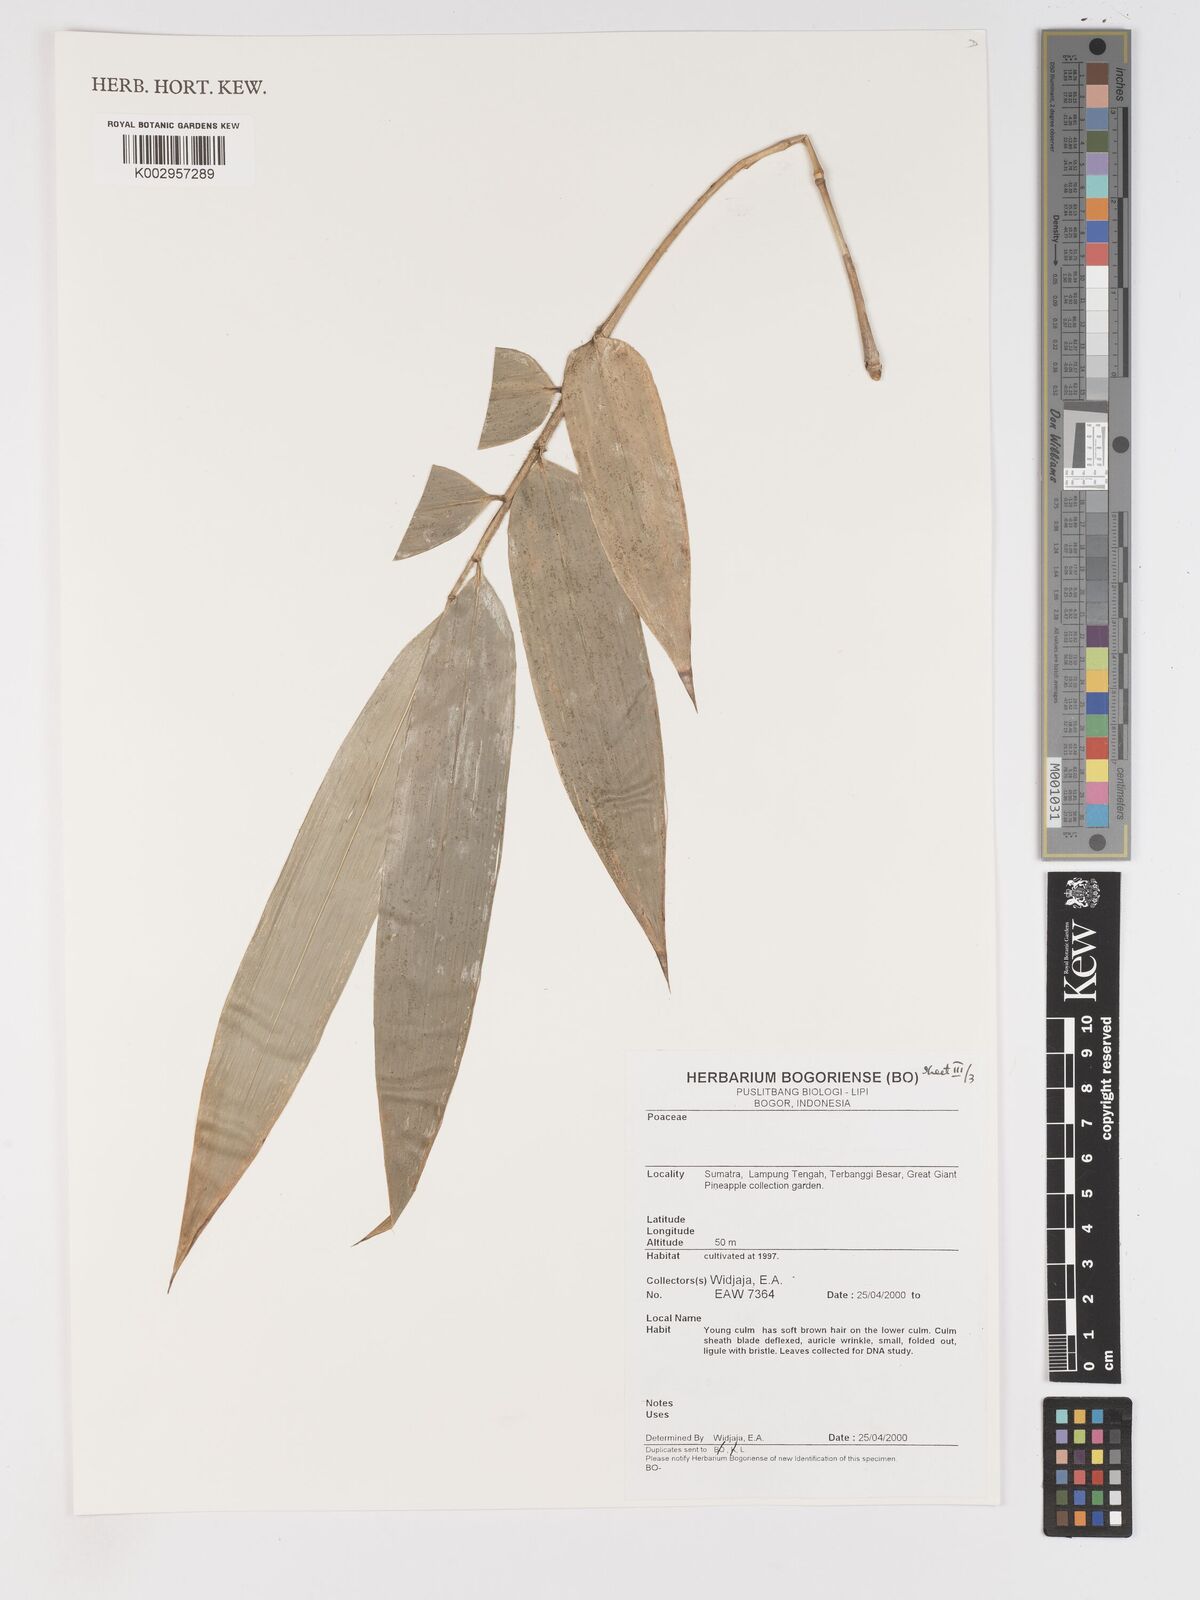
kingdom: Plantae
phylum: Tracheophyta
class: Liliopsida
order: Poales
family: Poaceae
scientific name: Poaceae
